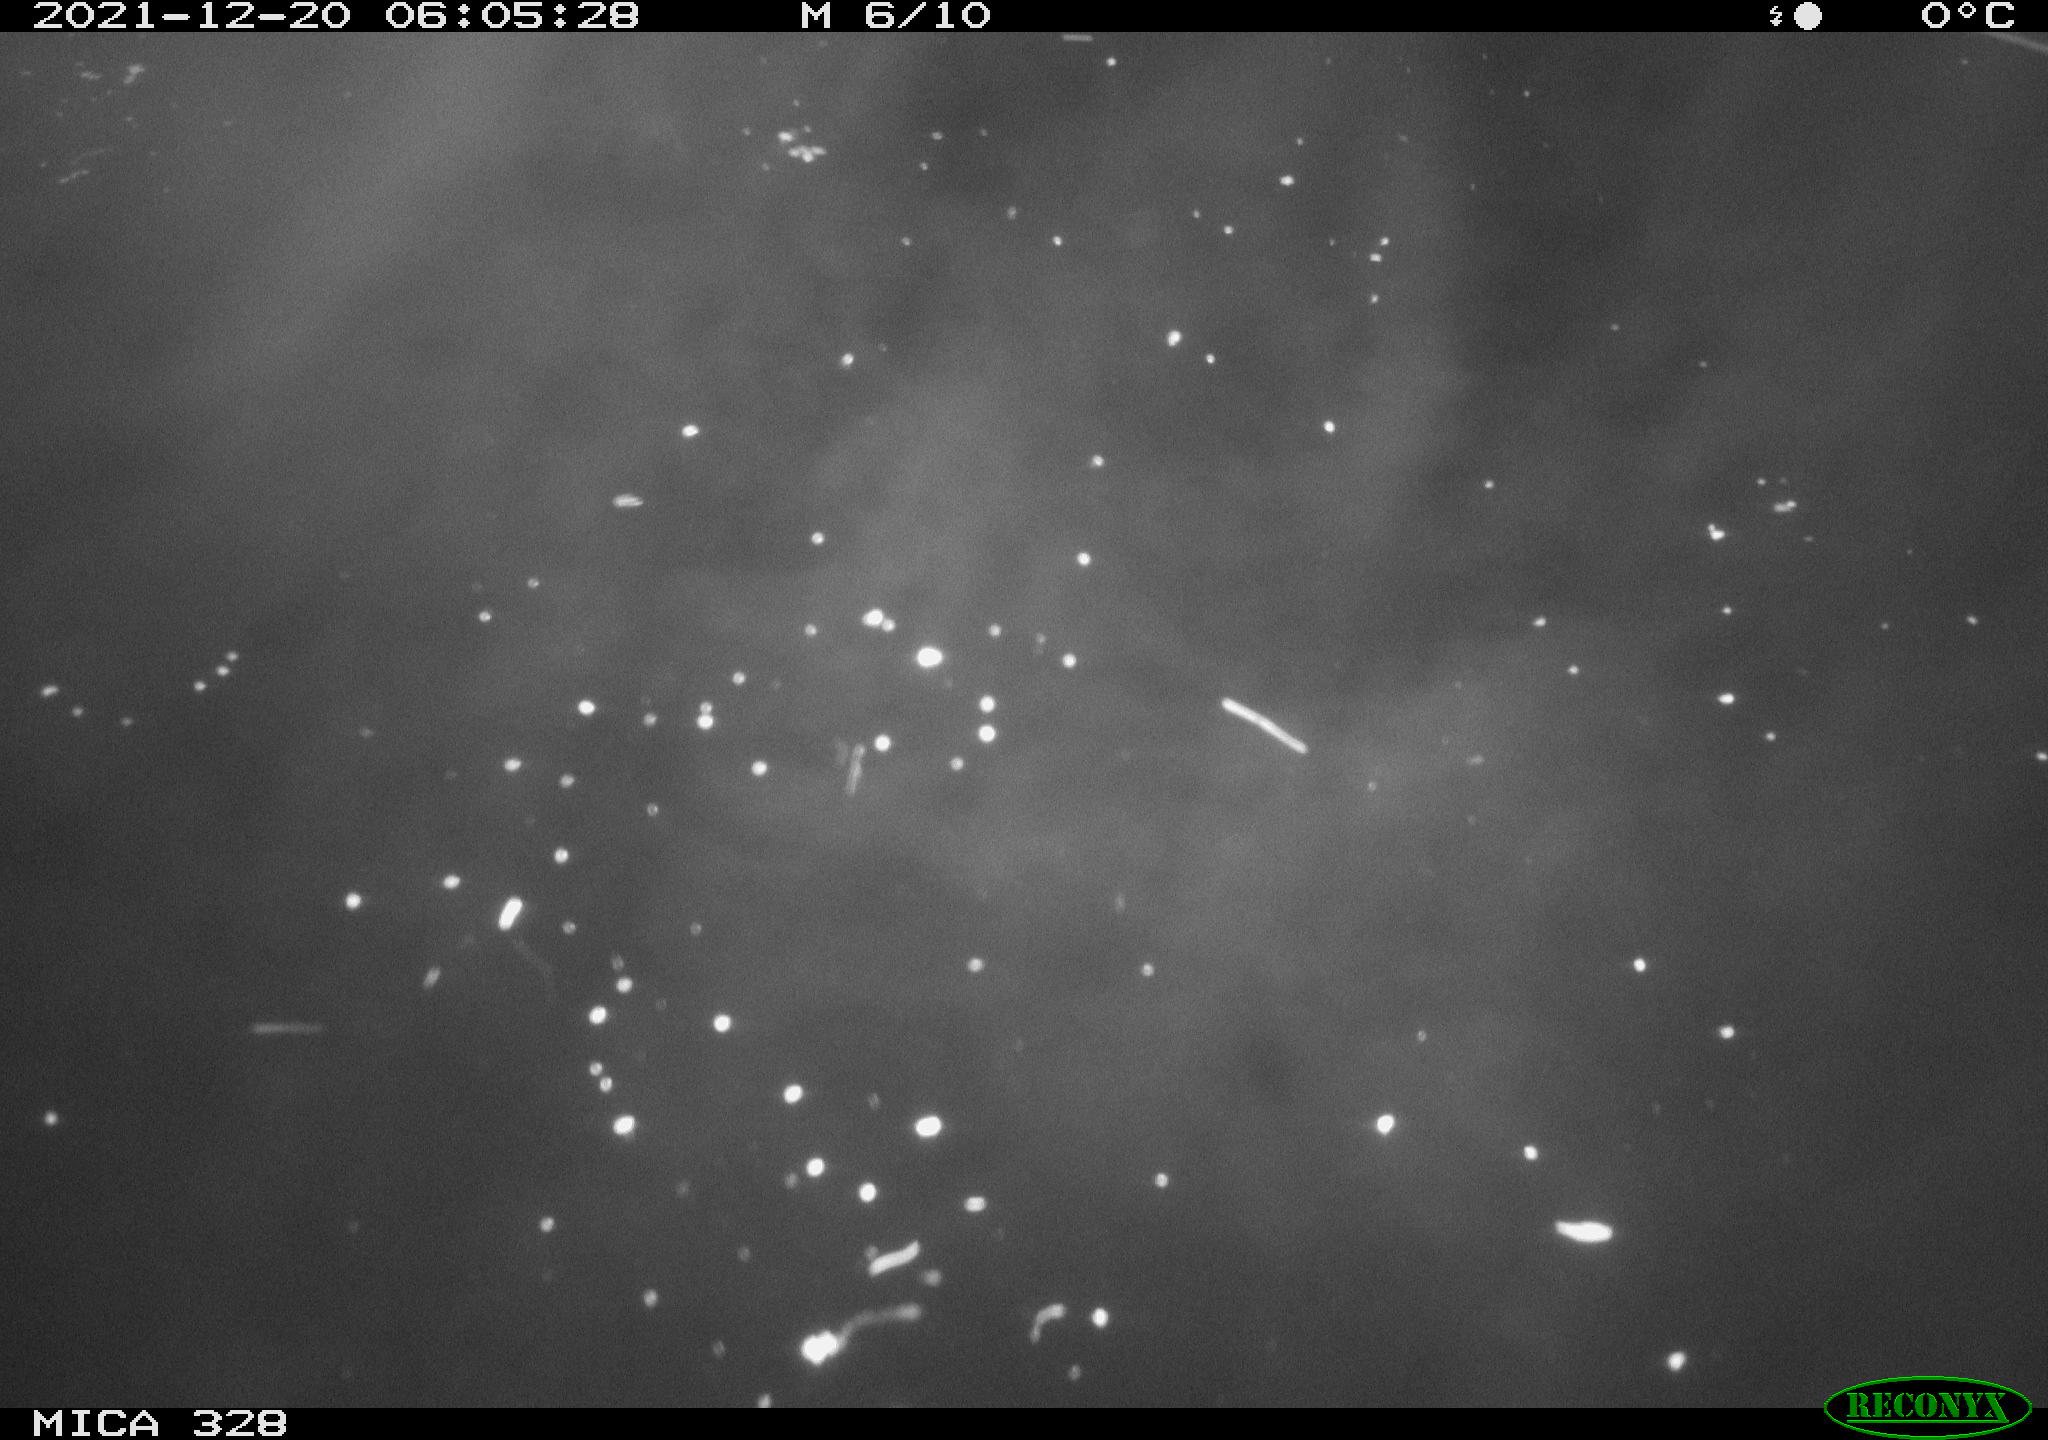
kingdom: Animalia
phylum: Chordata
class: Aves
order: Anseriformes
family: Anatidae
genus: Anas
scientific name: Anas platyrhynchos
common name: Mallard
